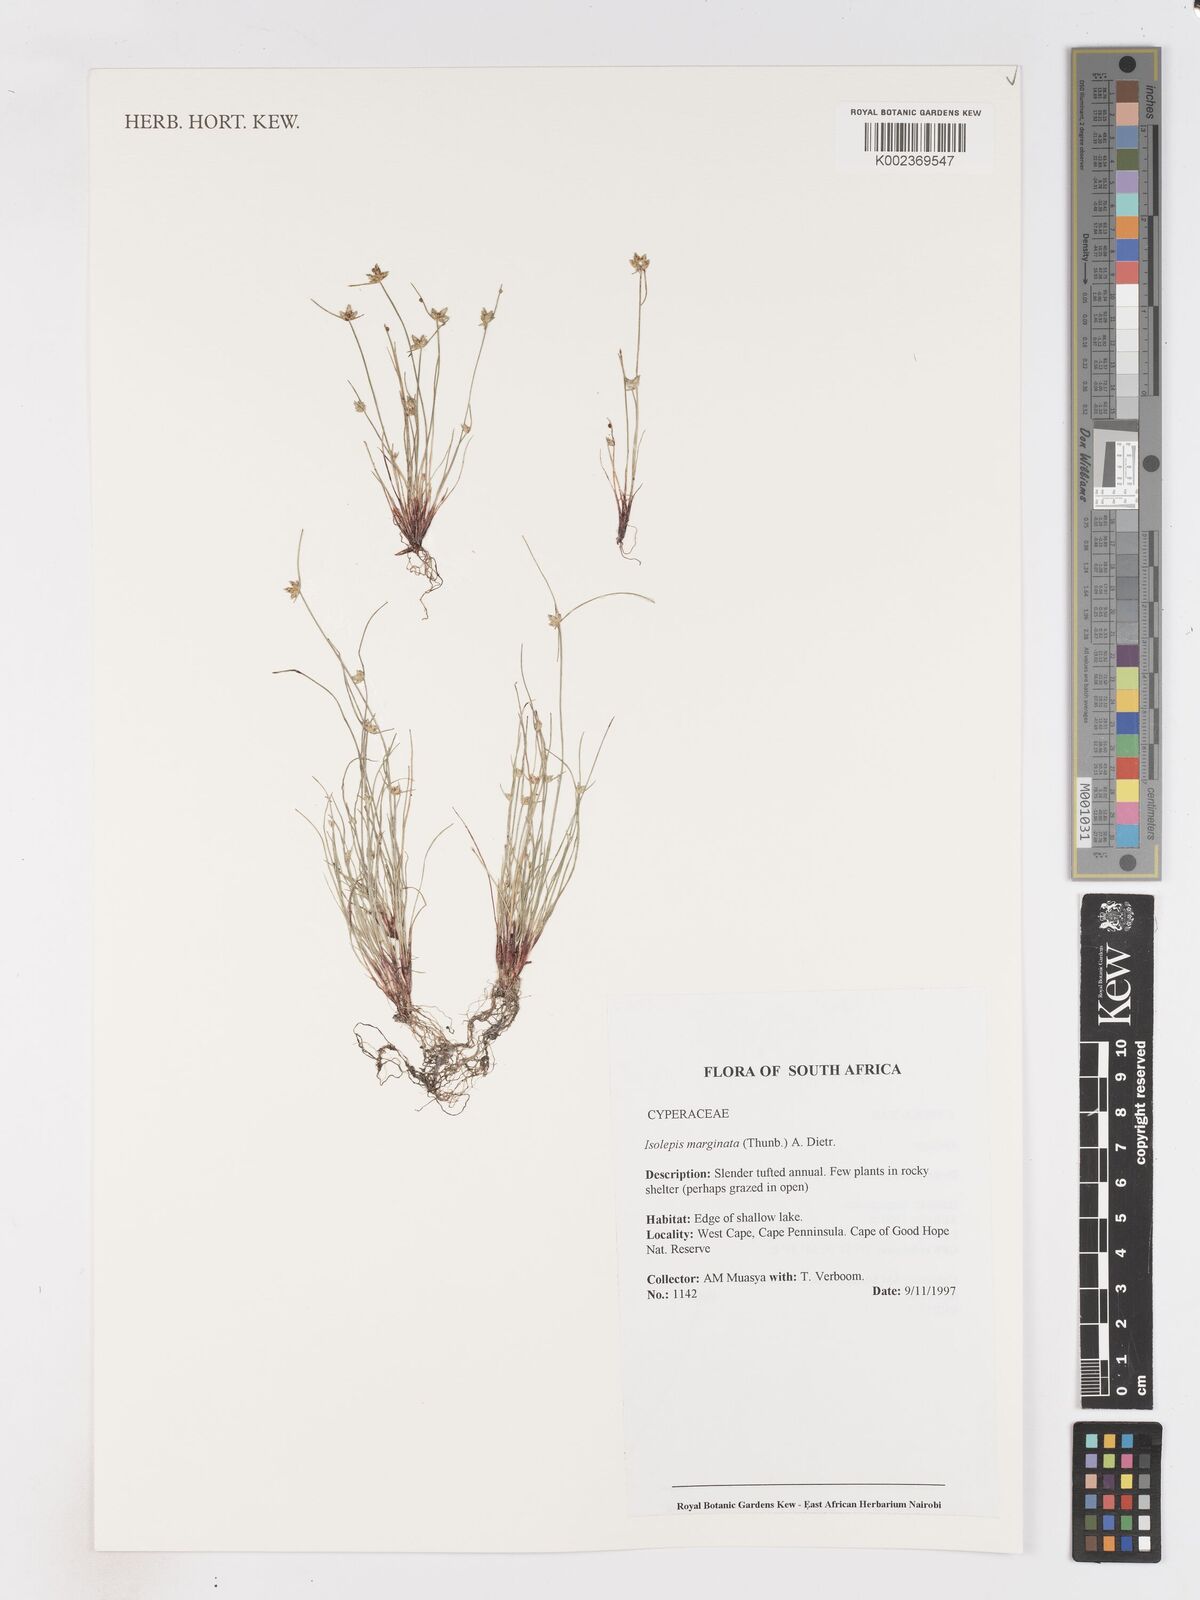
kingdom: Plantae
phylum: Tracheophyta
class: Liliopsida
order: Poales
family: Cyperaceae
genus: Isolepis
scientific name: Isolepis marginata
